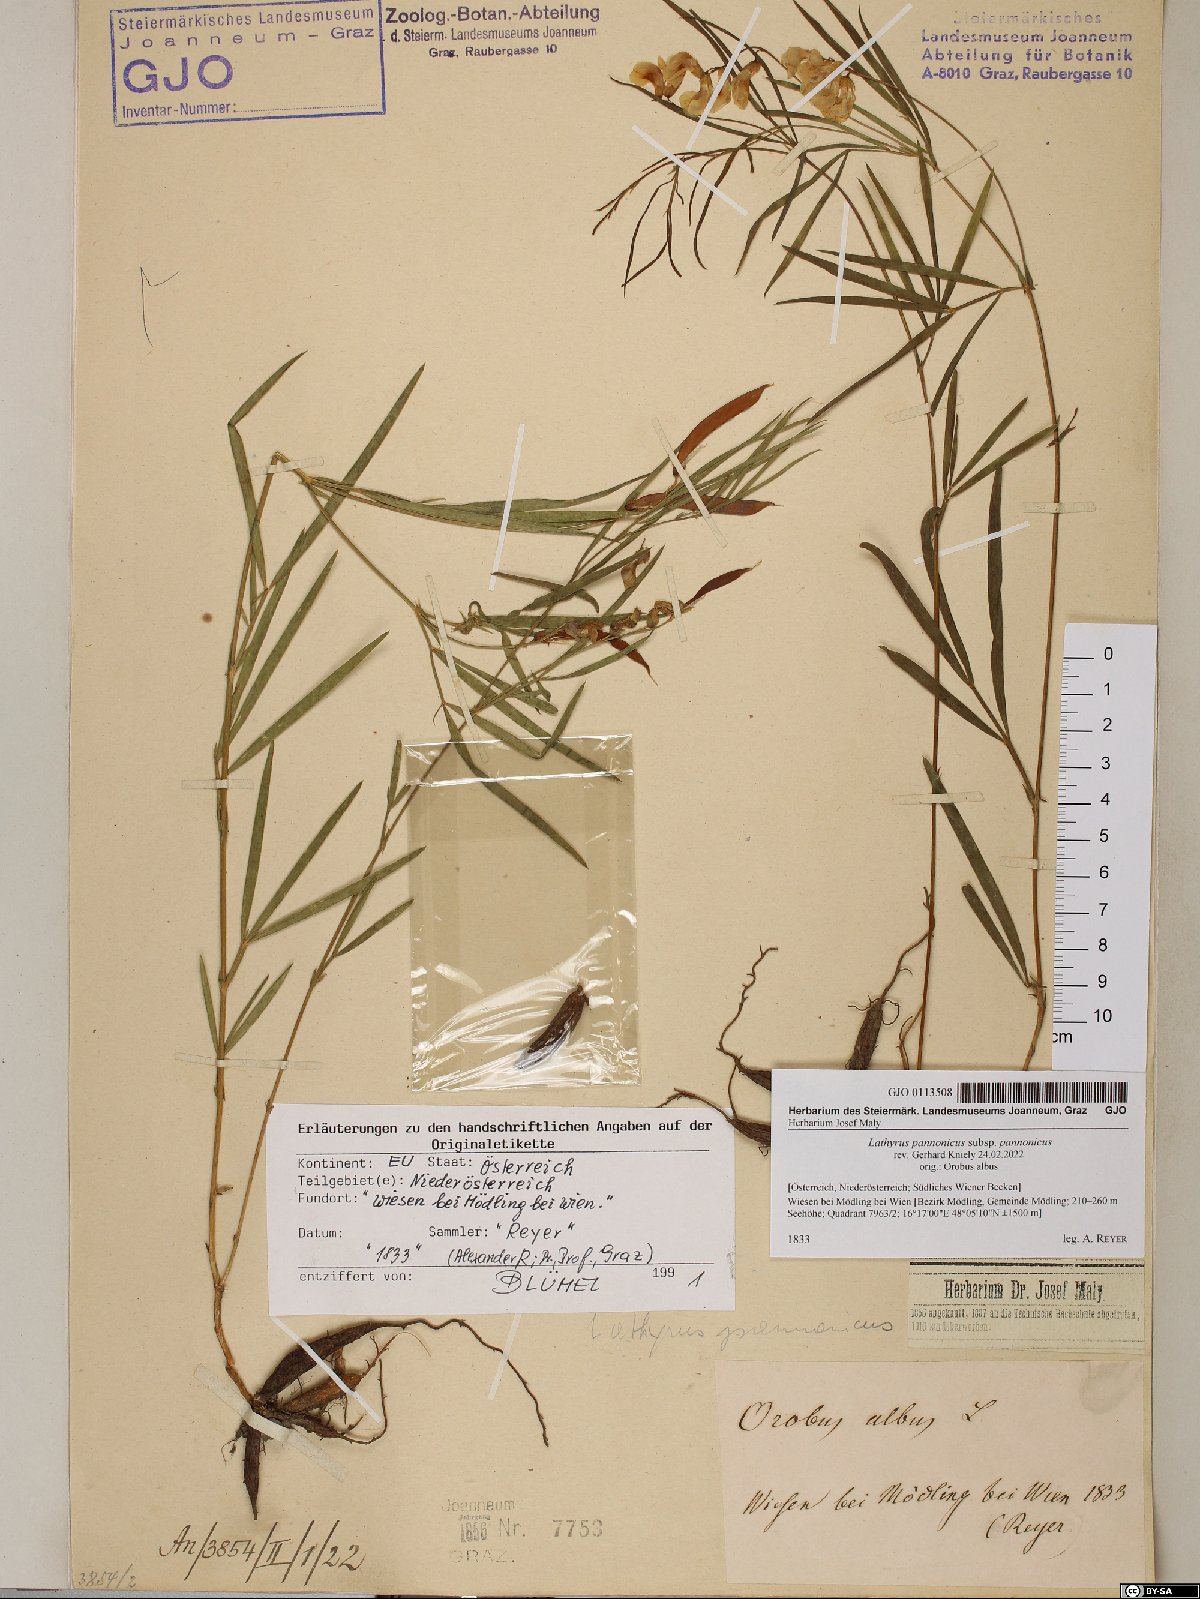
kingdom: Plantae
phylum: Tracheophyta
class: Magnoliopsida
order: Fabales
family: Fabaceae
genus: Lathyrus
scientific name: Lathyrus pannonicus
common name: Pea
